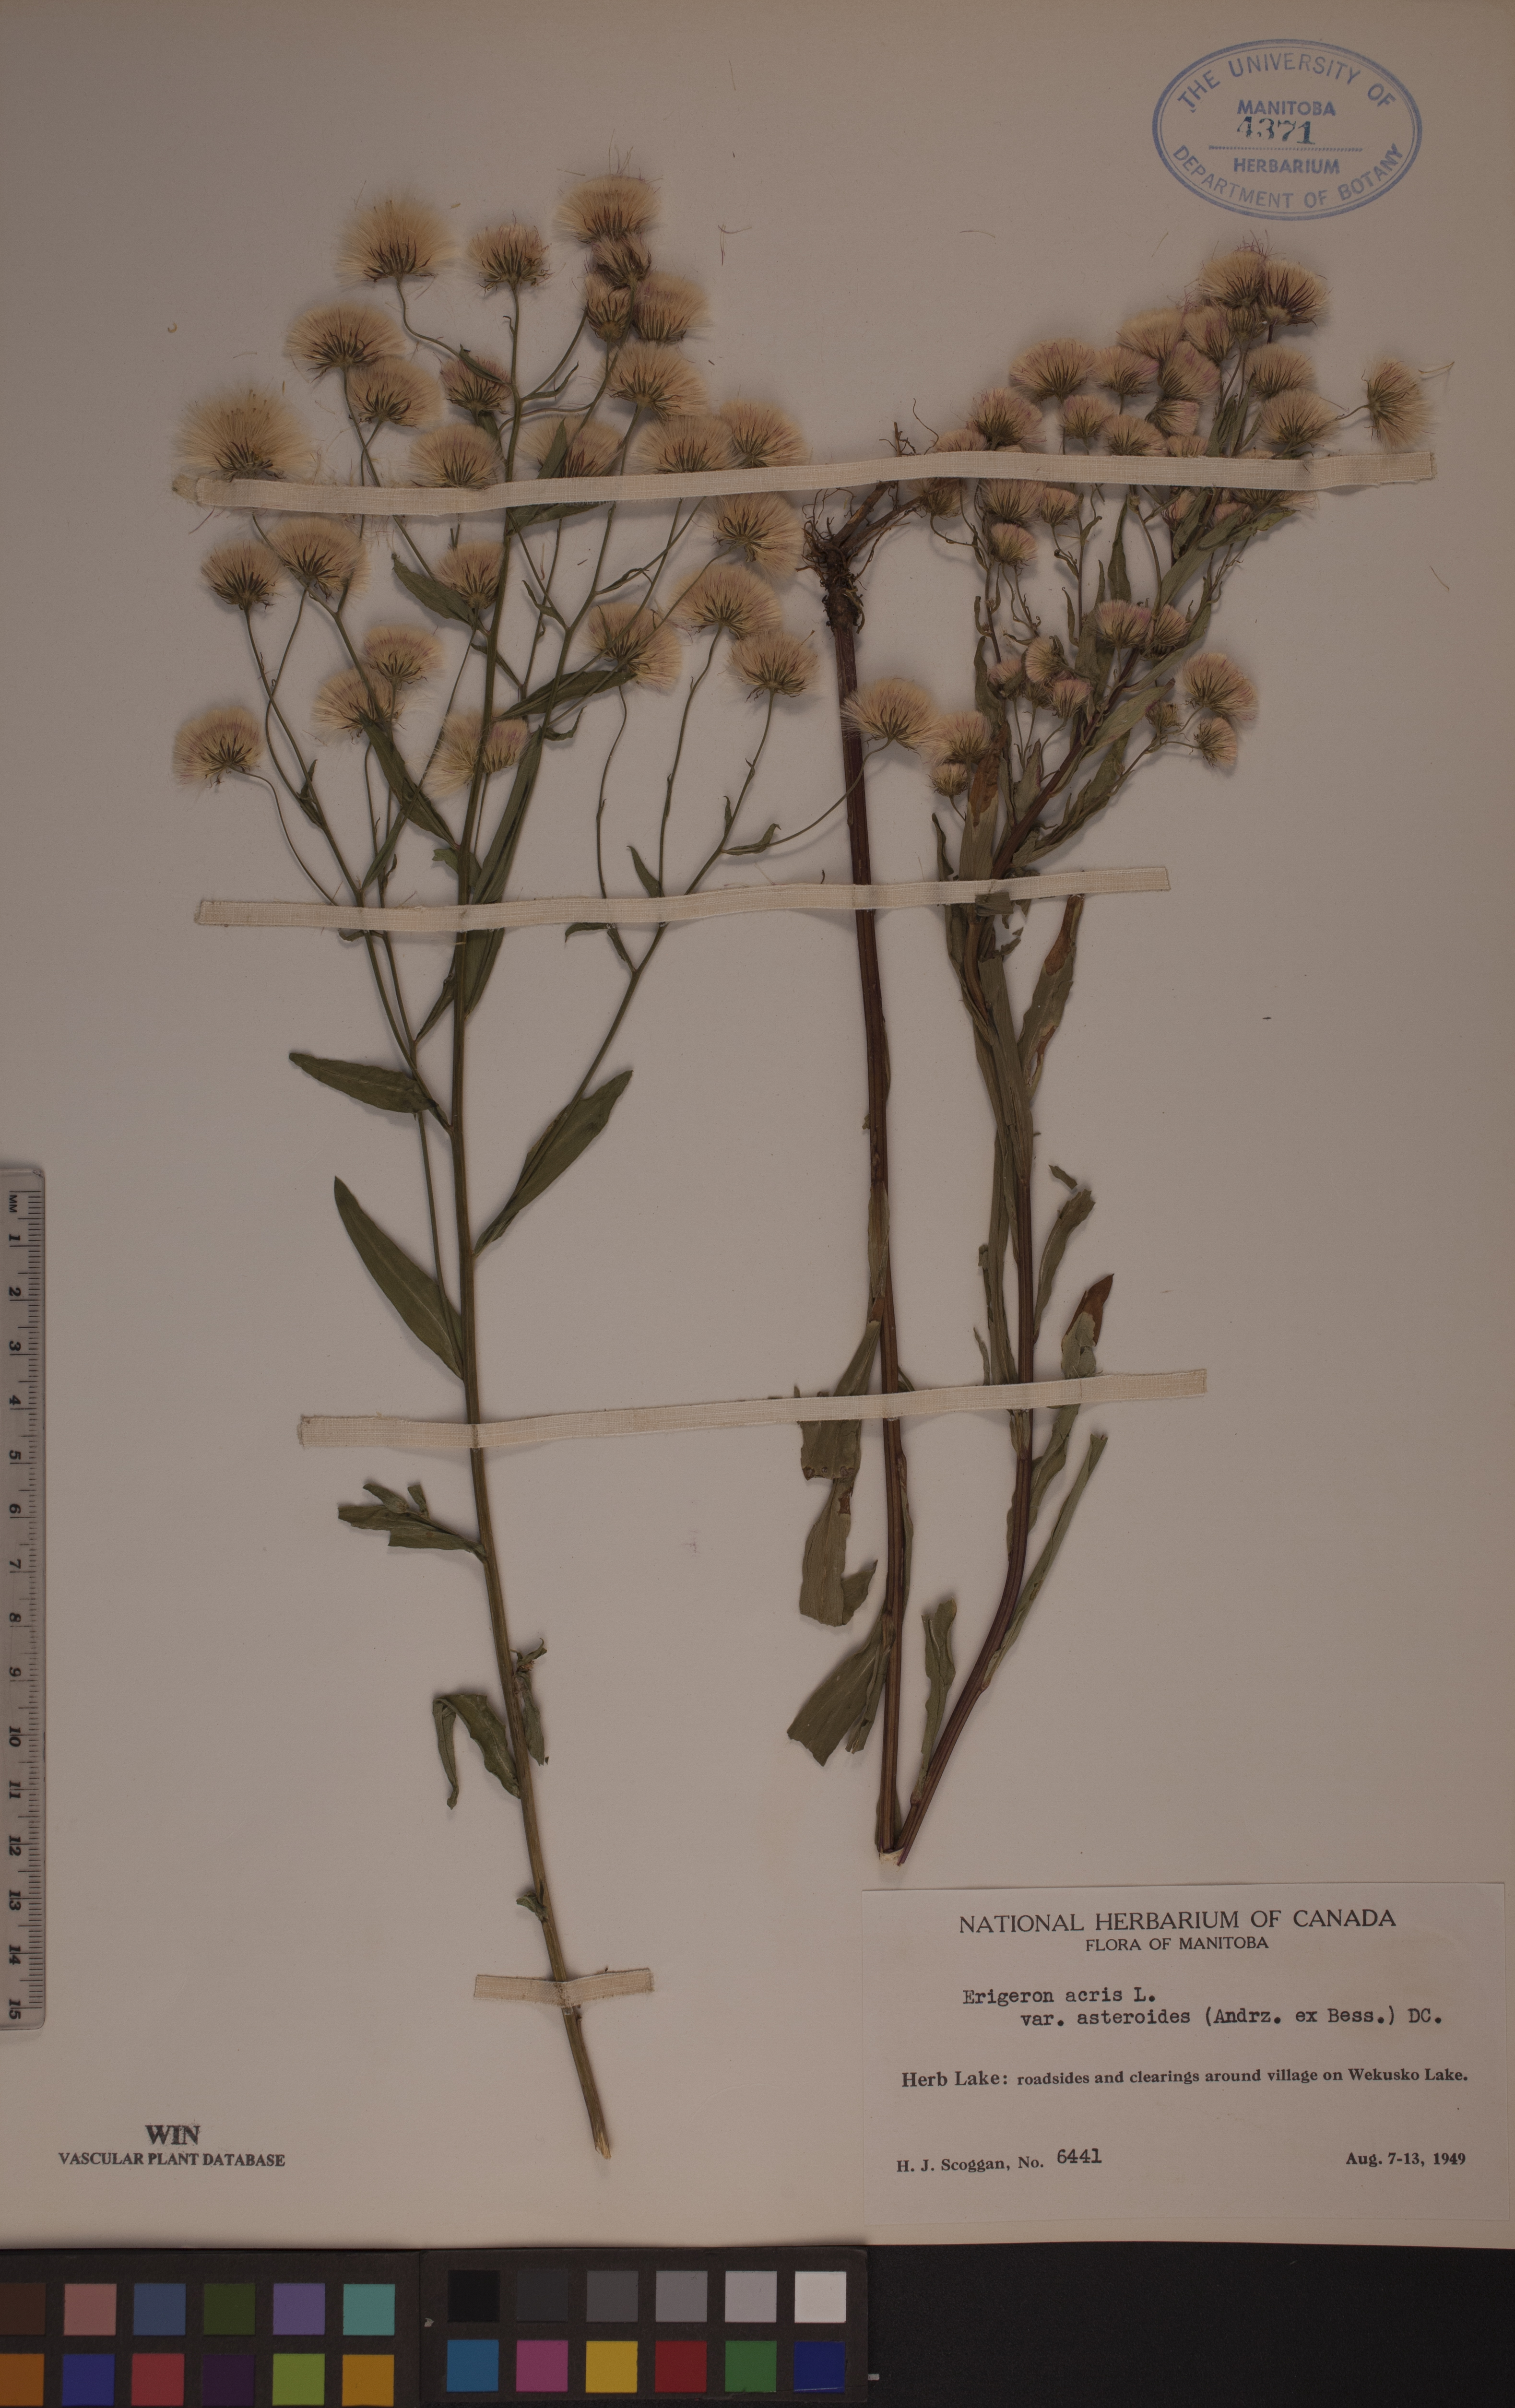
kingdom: Plantae
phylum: Tracheophyta
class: Magnoliopsida
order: Asterales
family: Asteraceae
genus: Erigeron
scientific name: Erigeron podolicus
